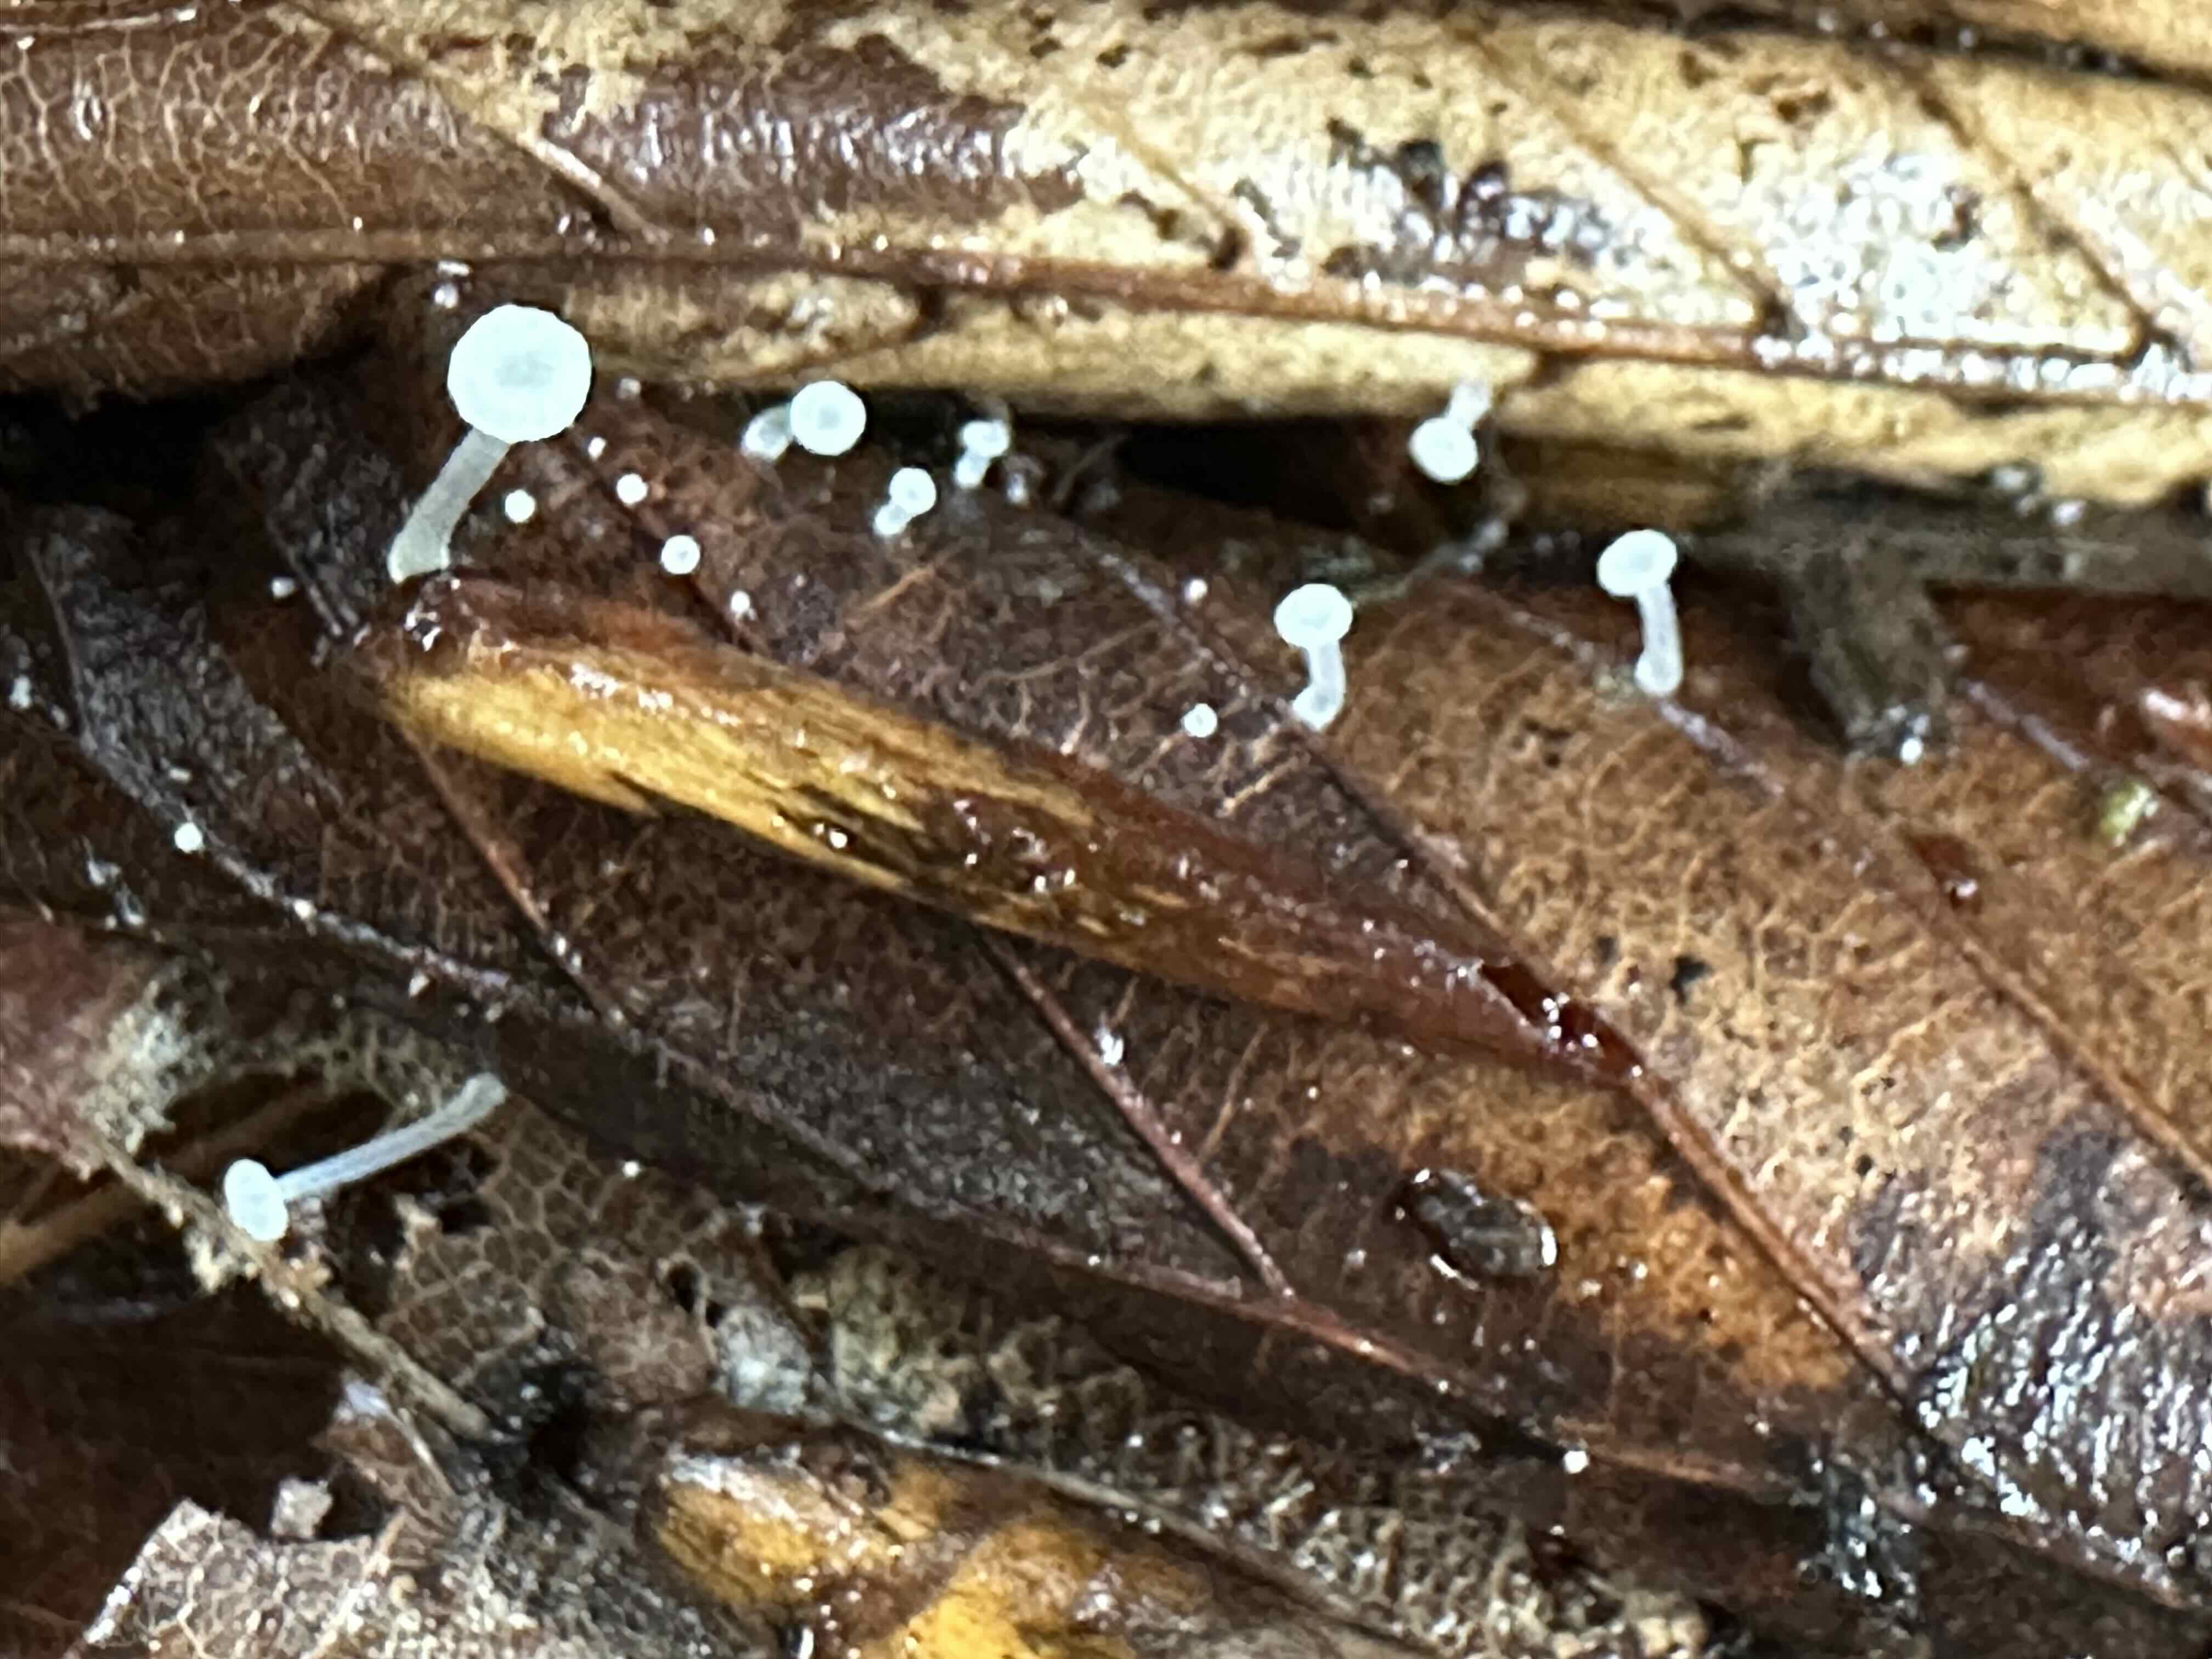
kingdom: Fungi
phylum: Basidiomycota
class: Agaricomycetes
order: Agaricales
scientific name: Agaricales
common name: champignonordenen
